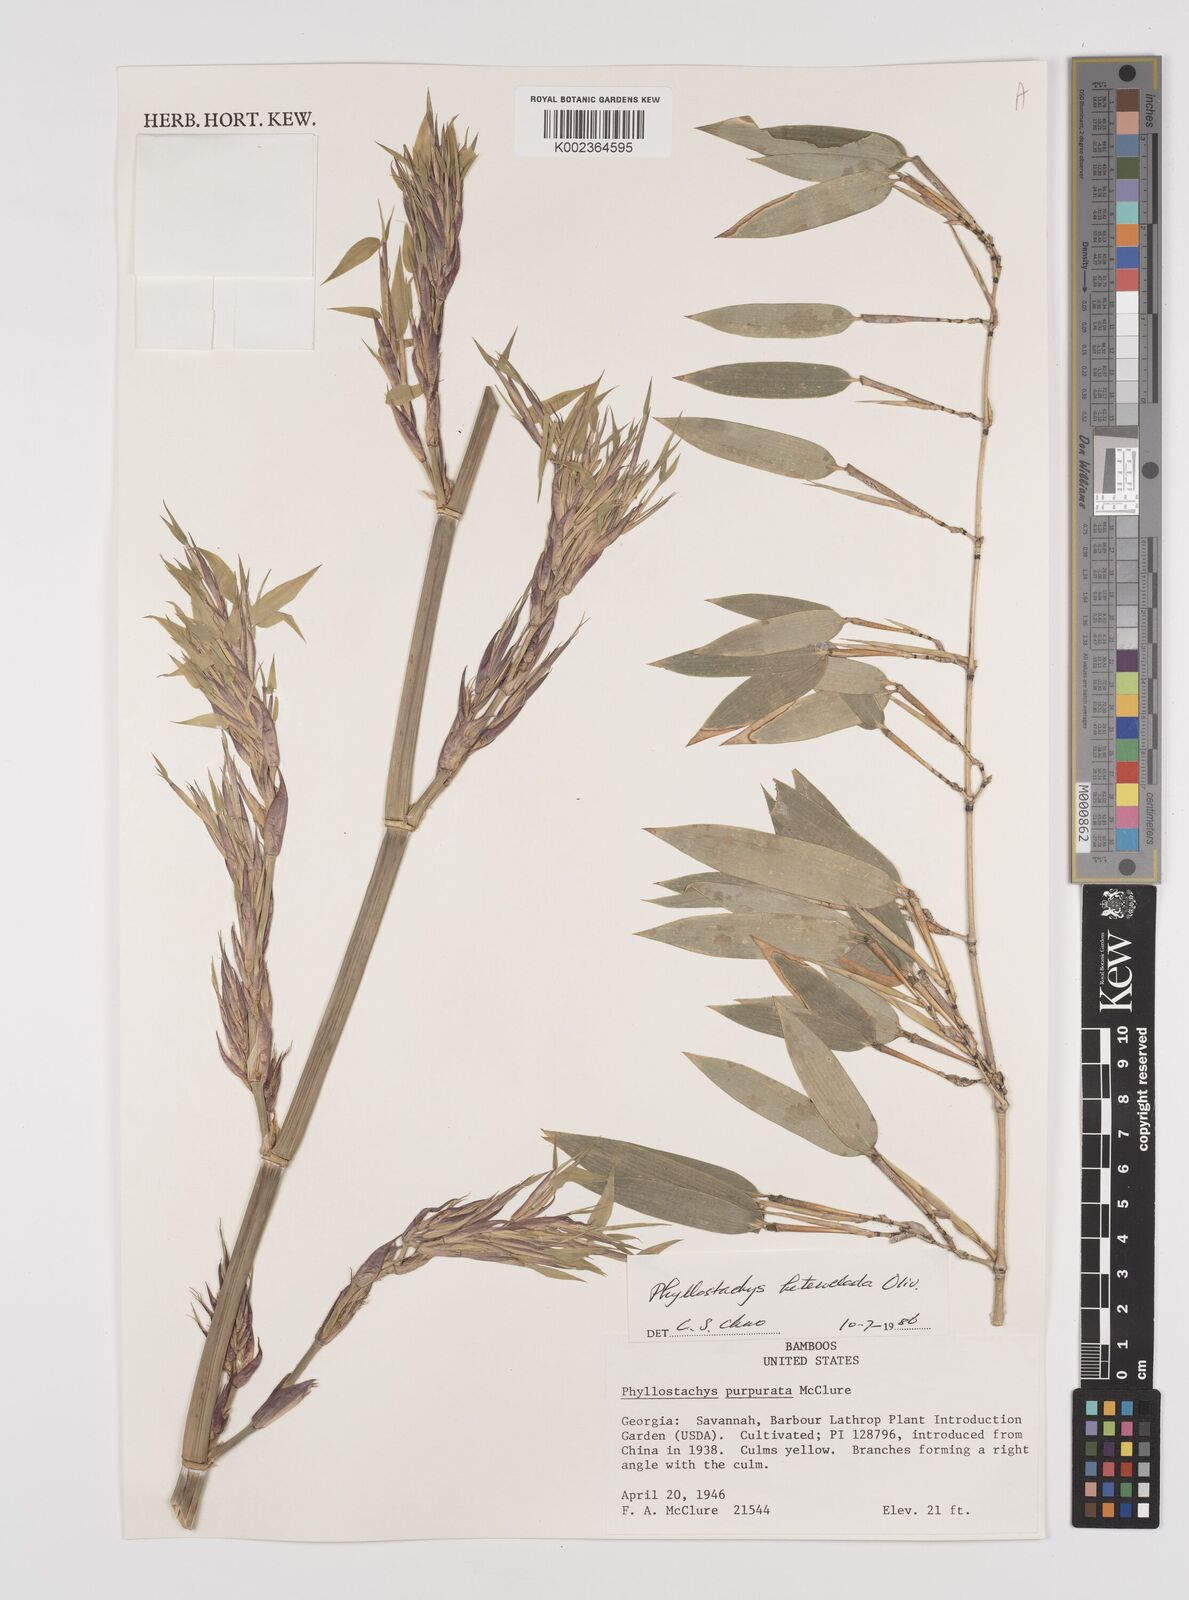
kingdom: Plantae
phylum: Tracheophyta
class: Liliopsida
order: Poales
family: Poaceae
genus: Phyllostachys
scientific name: Phyllostachys heteroclada
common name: Fishscale bamboo
